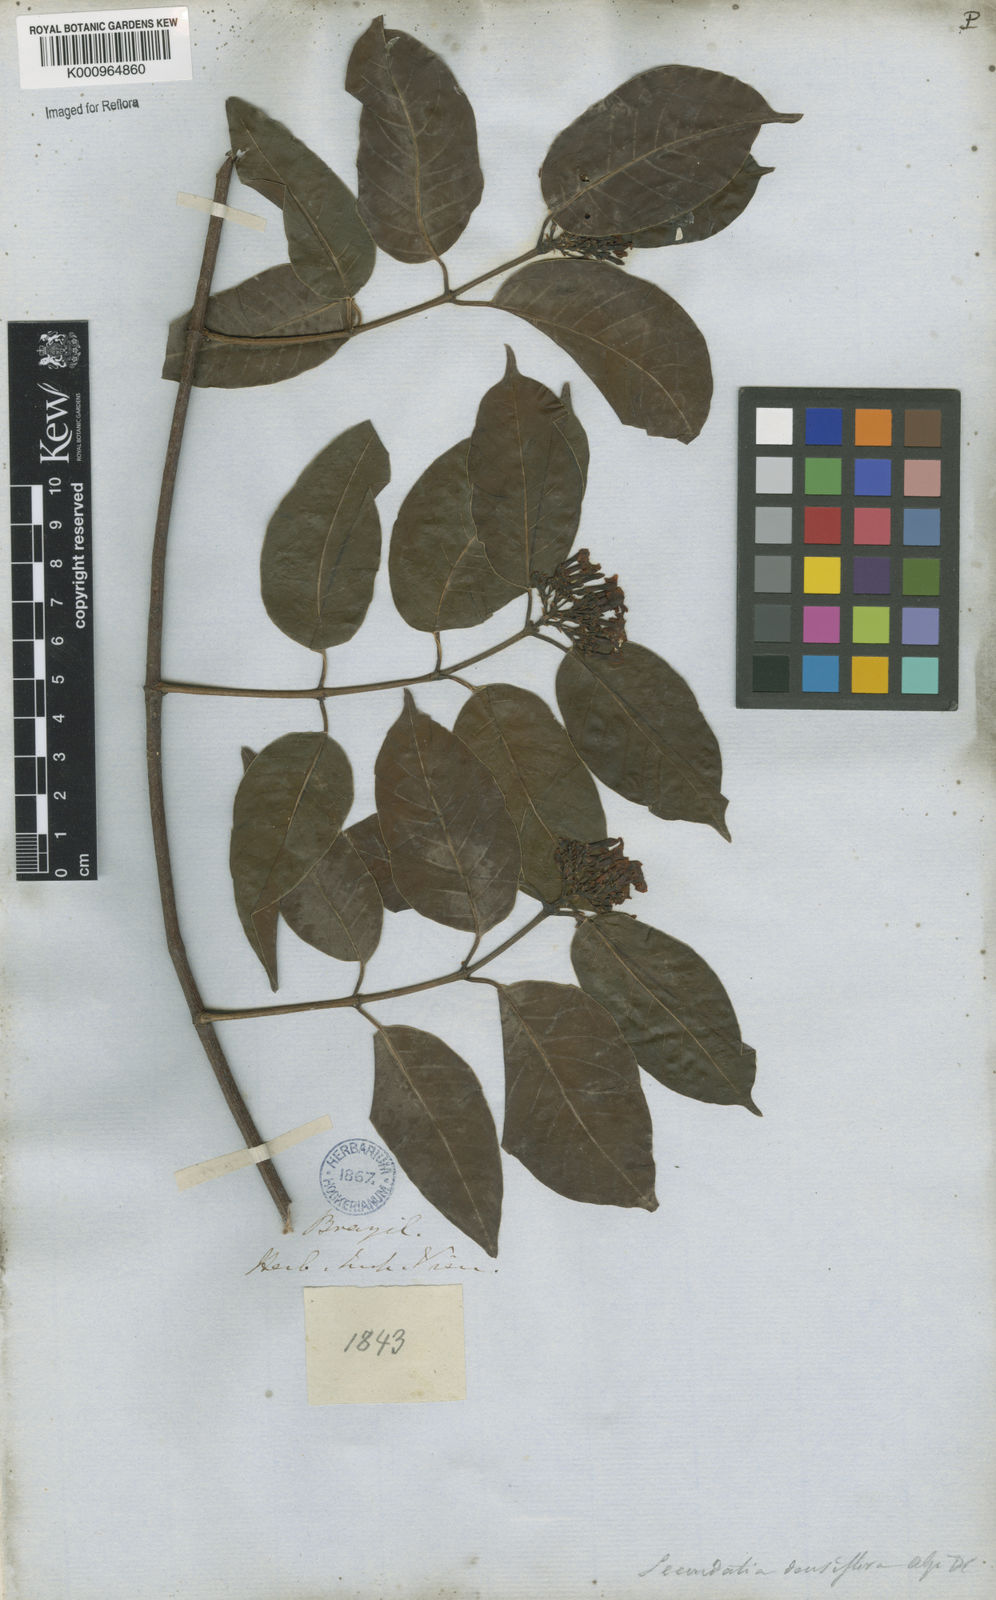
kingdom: Plantae
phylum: Tracheophyta
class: Magnoliopsida
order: Gentianales
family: Apocynaceae
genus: Secondatia
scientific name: Secondatia densiflora
